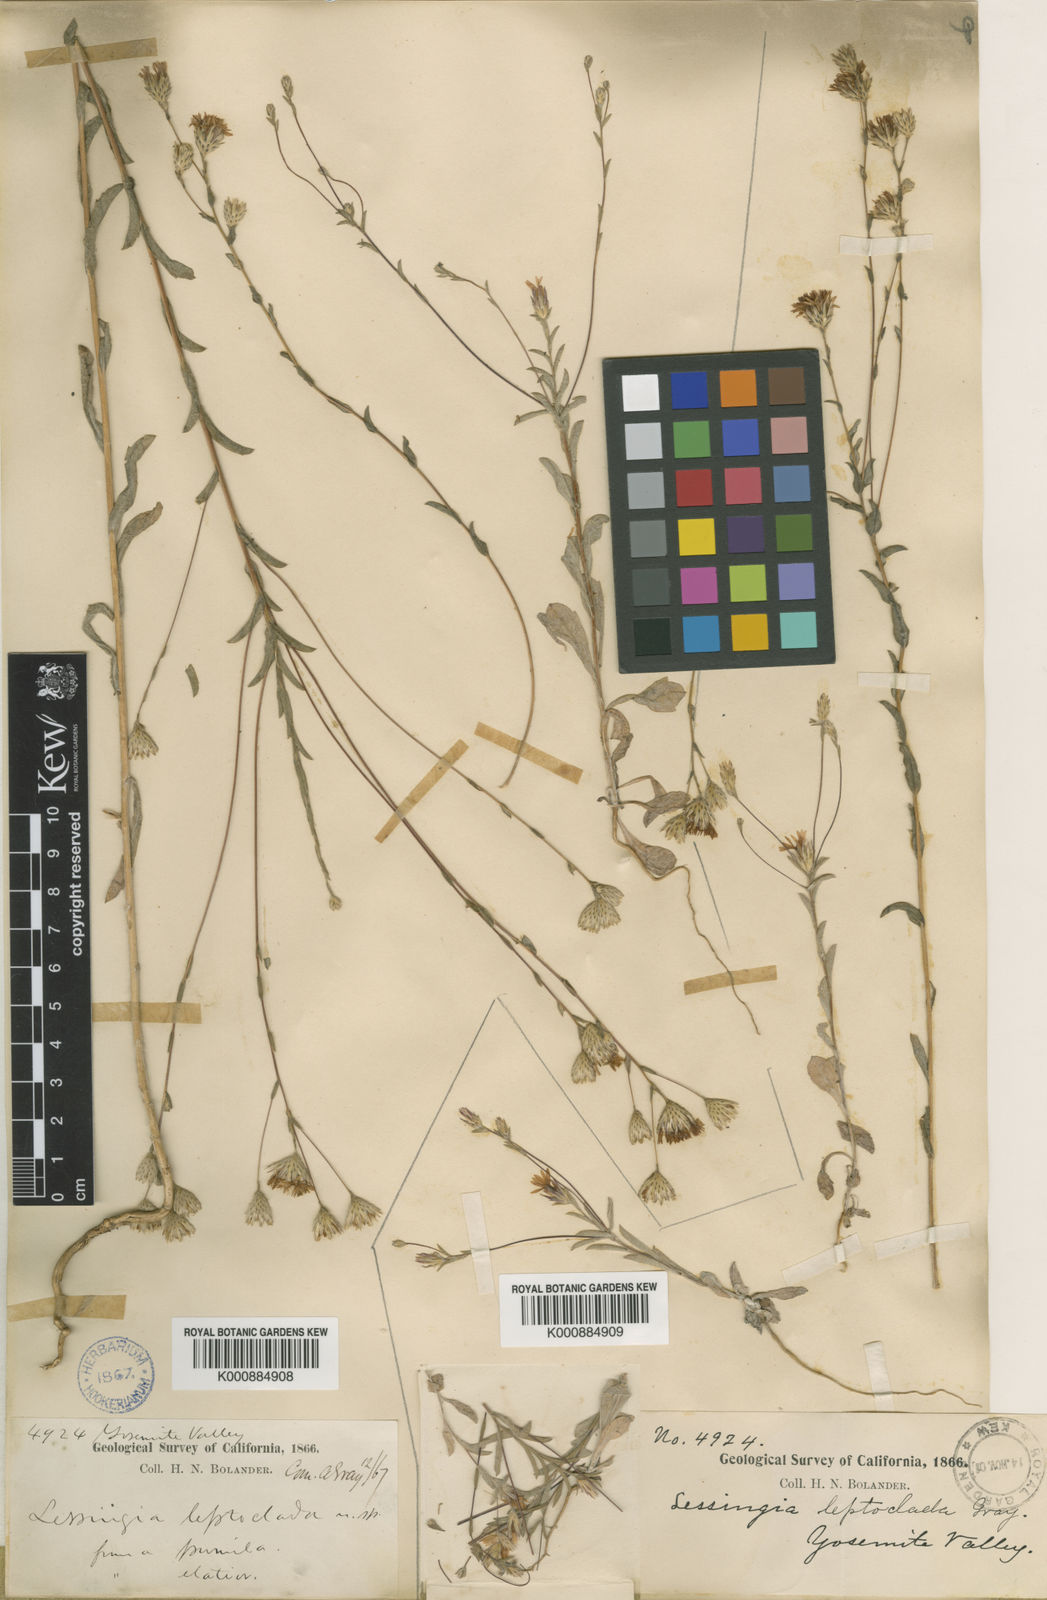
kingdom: Plantae
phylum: Tracheophyta
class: Magnoliopsida
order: Asterales
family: Asteraceae
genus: Lessingia
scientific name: Lessingia
